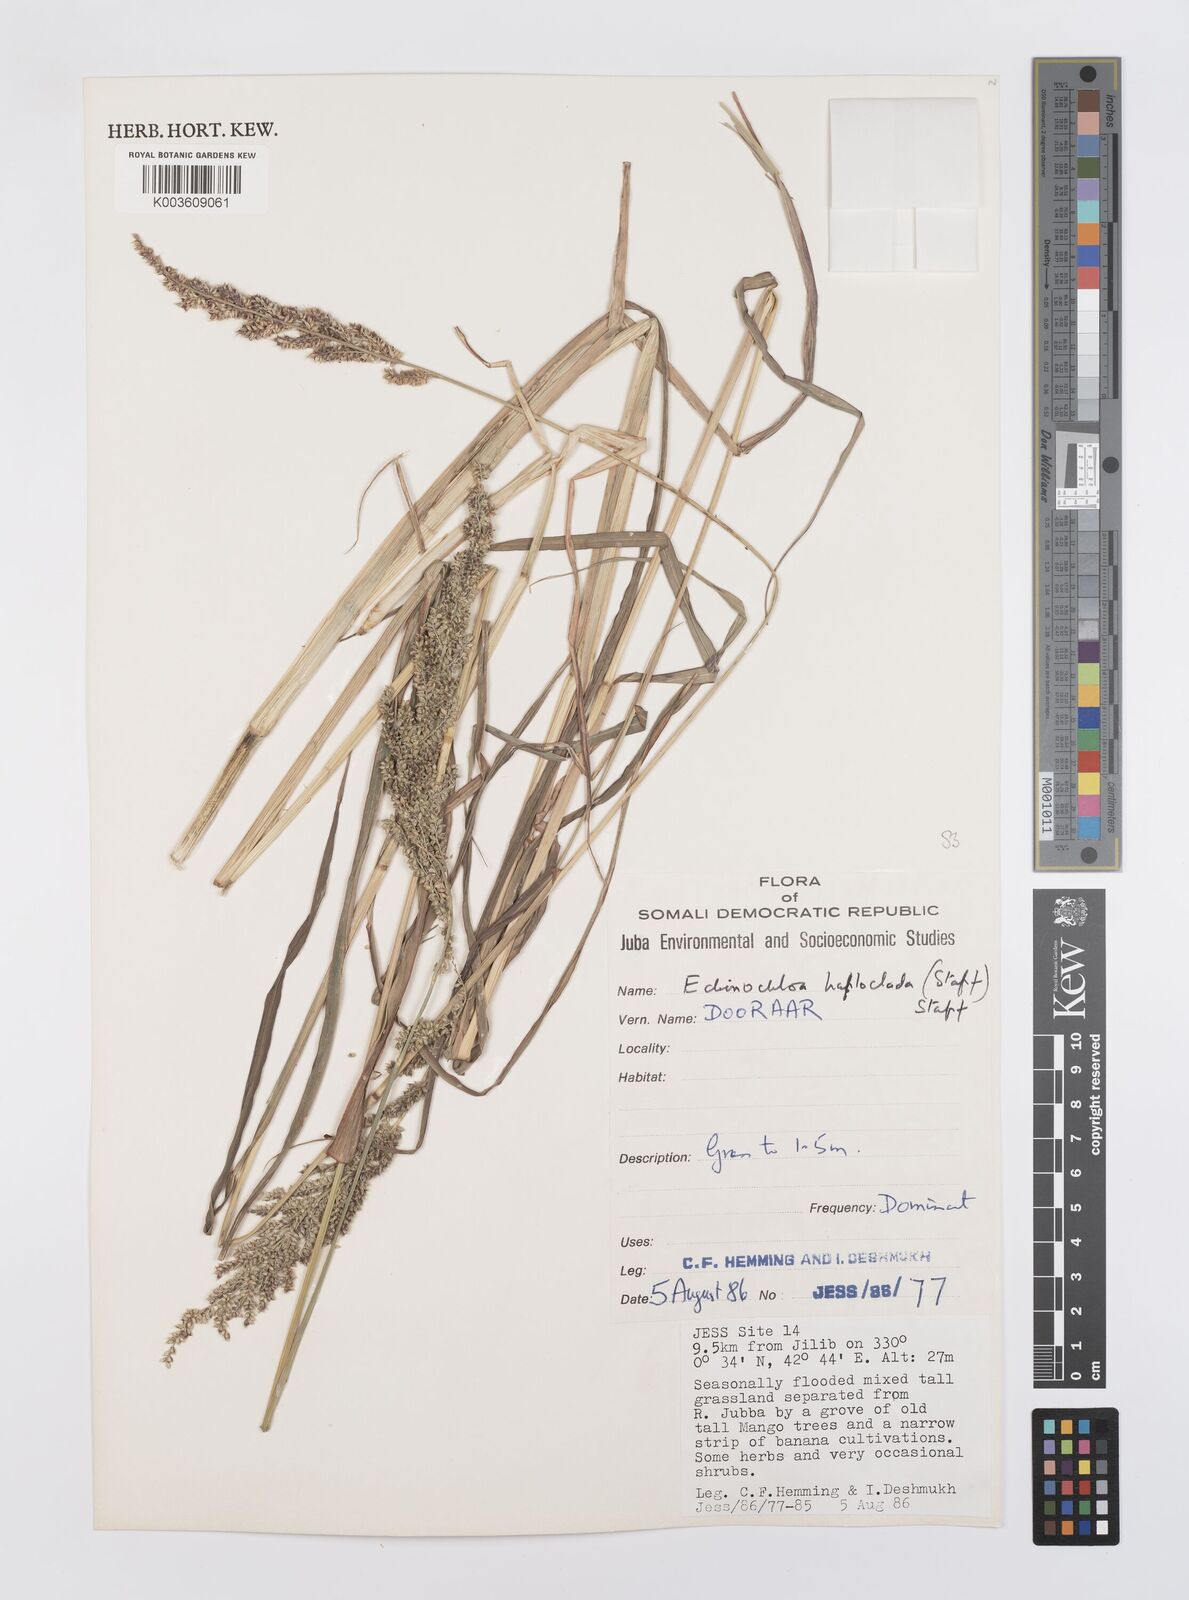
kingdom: Plantae
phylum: Tracheophyta
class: Liliopsida
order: Poales
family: Poaceae
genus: Echinochloa
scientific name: Echinochloa haploclada
